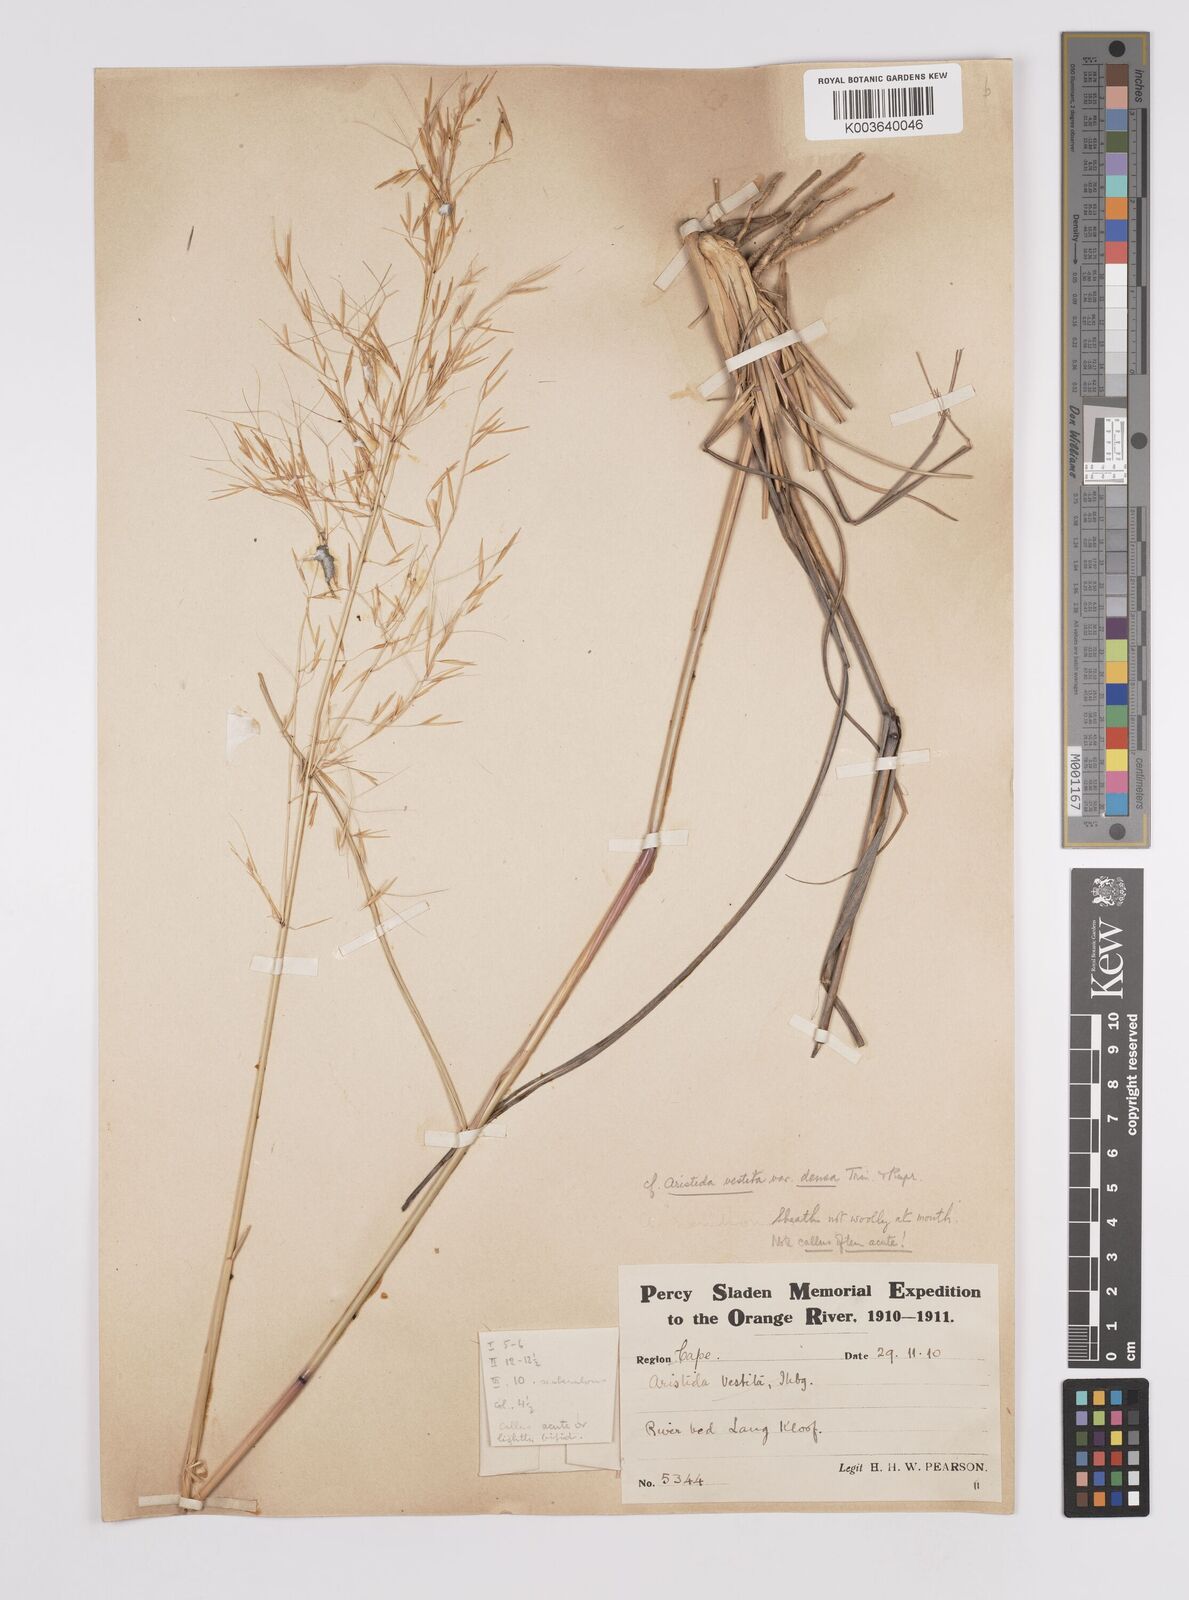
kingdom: Plantae
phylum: Tracheophyta
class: Liliopsida
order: Poales
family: Poaceae
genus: Aristida
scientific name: Aristida meridionalis
